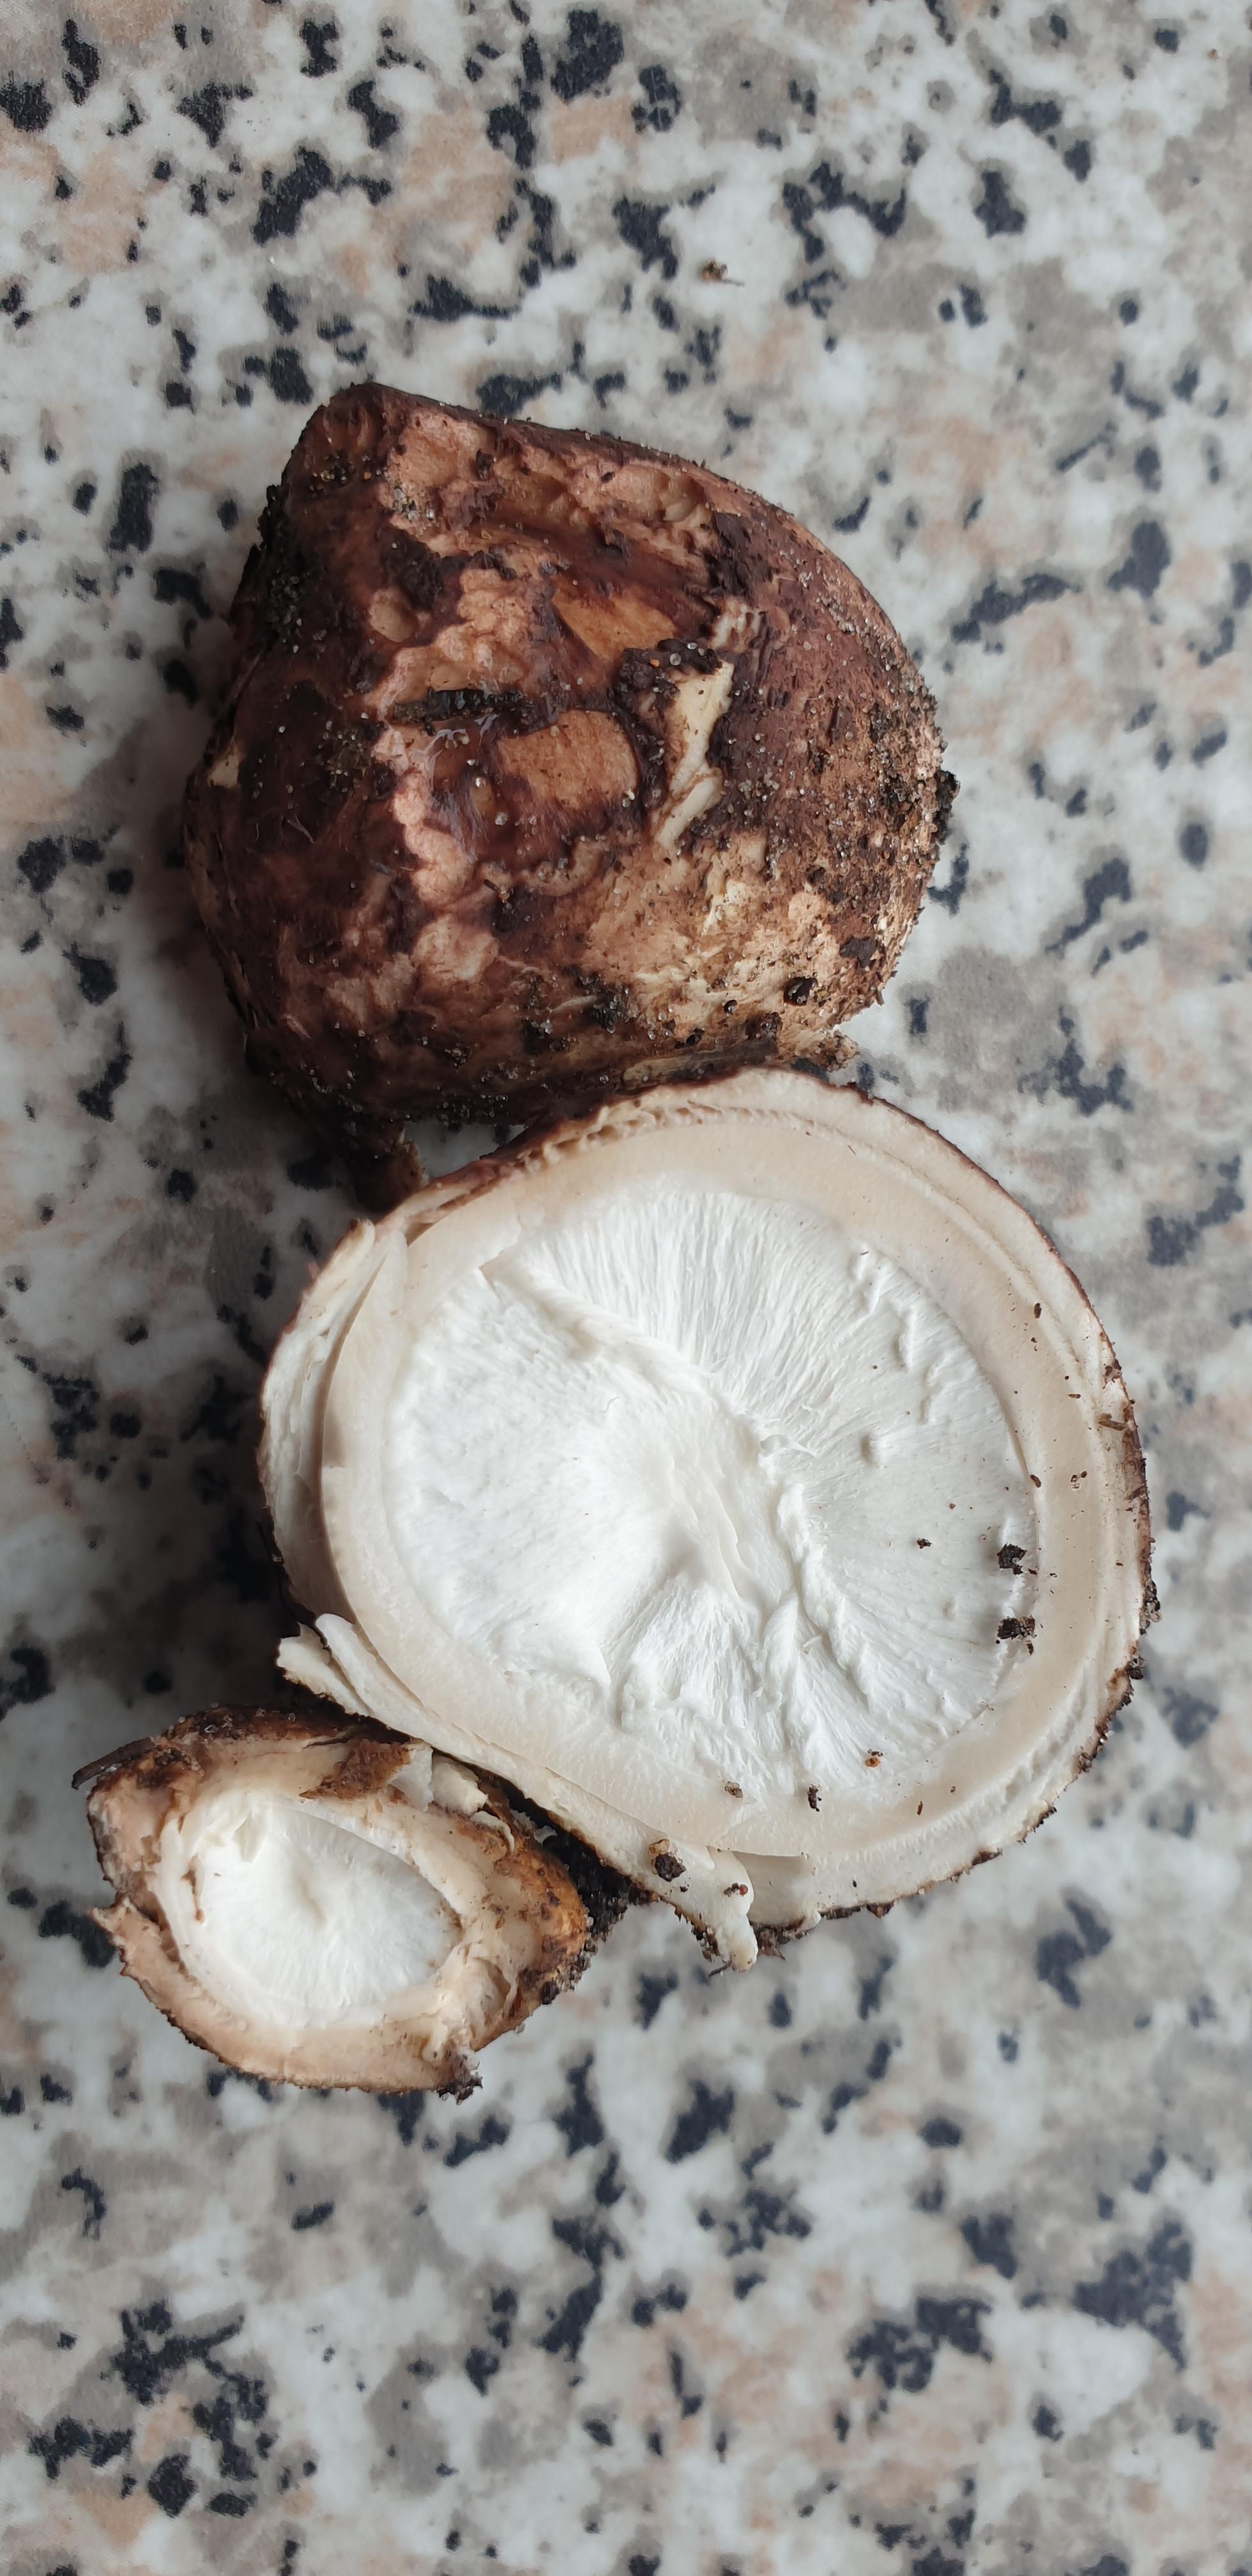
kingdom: Fungi
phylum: Basidiomycota
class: Agaricomycetes
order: Geastrales
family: Geastraceae
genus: Geastrum
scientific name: Geastrum michelianum
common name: kødet stjernebold
